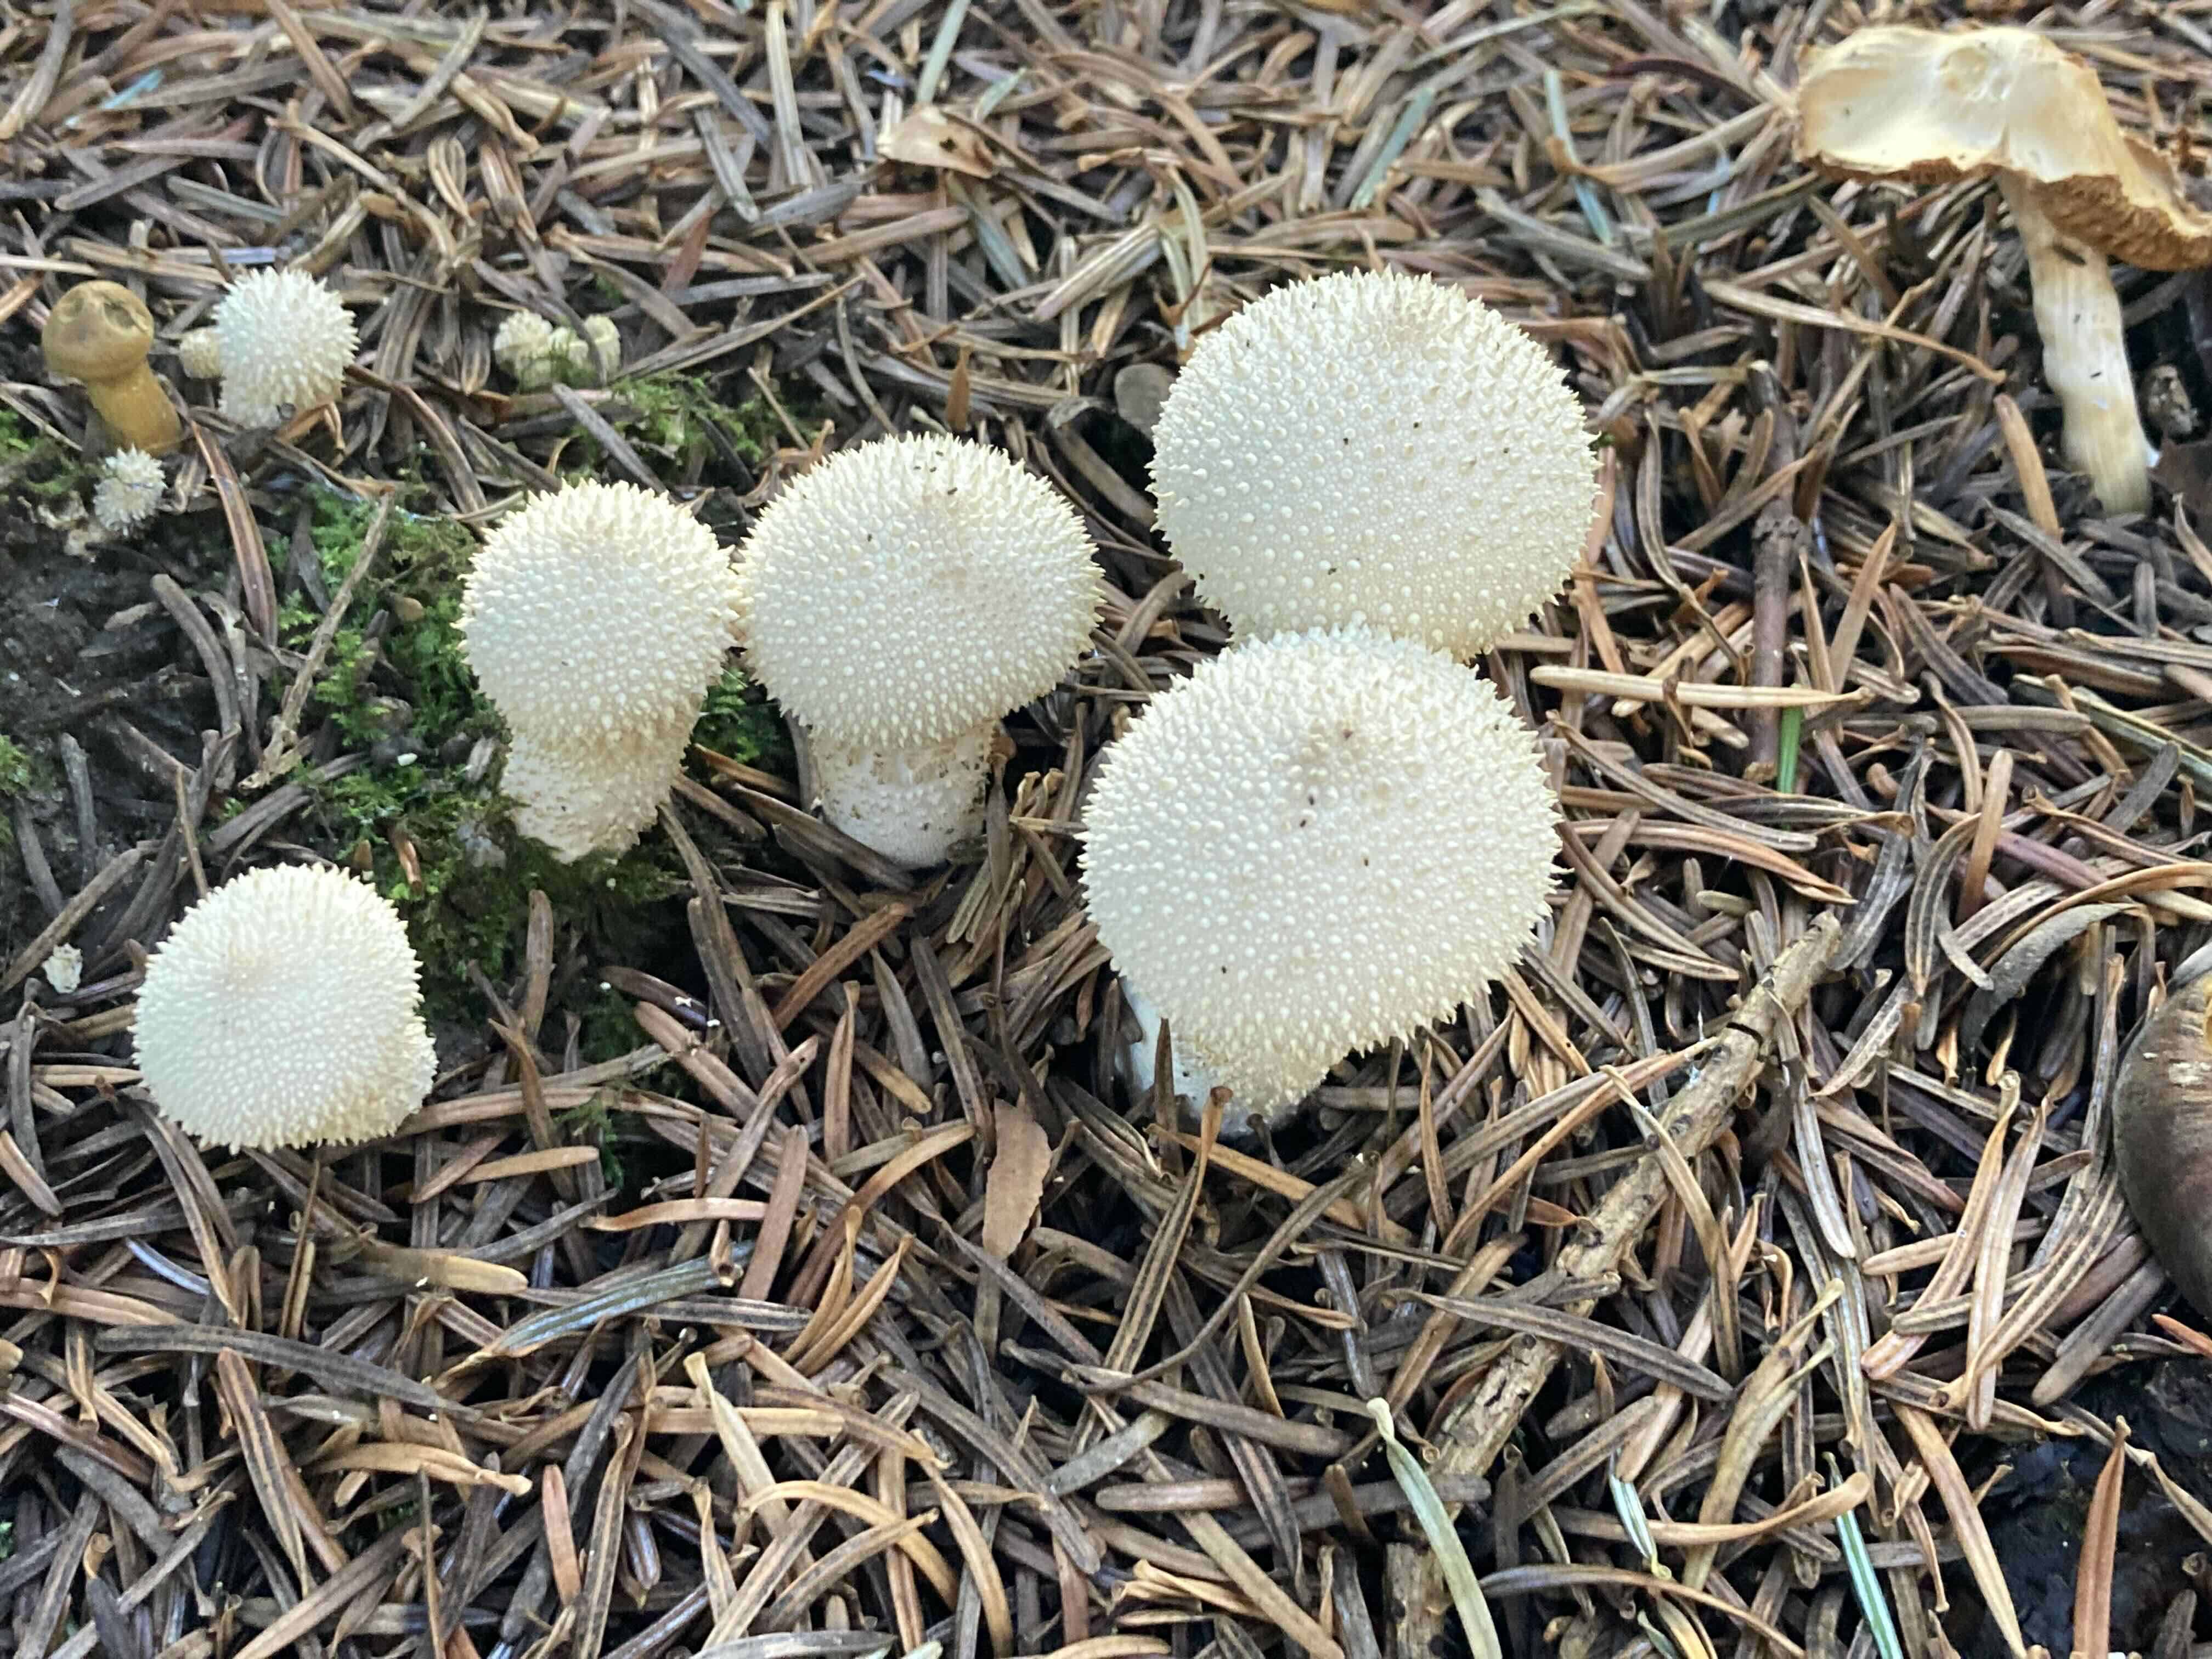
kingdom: Fungi
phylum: Basidiomycota
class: Agaricomycetes
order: Agaricales
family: Lycoperdaceae
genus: Lycoperdon
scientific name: Lycoperdon perlatum
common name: krystal-støvbold
